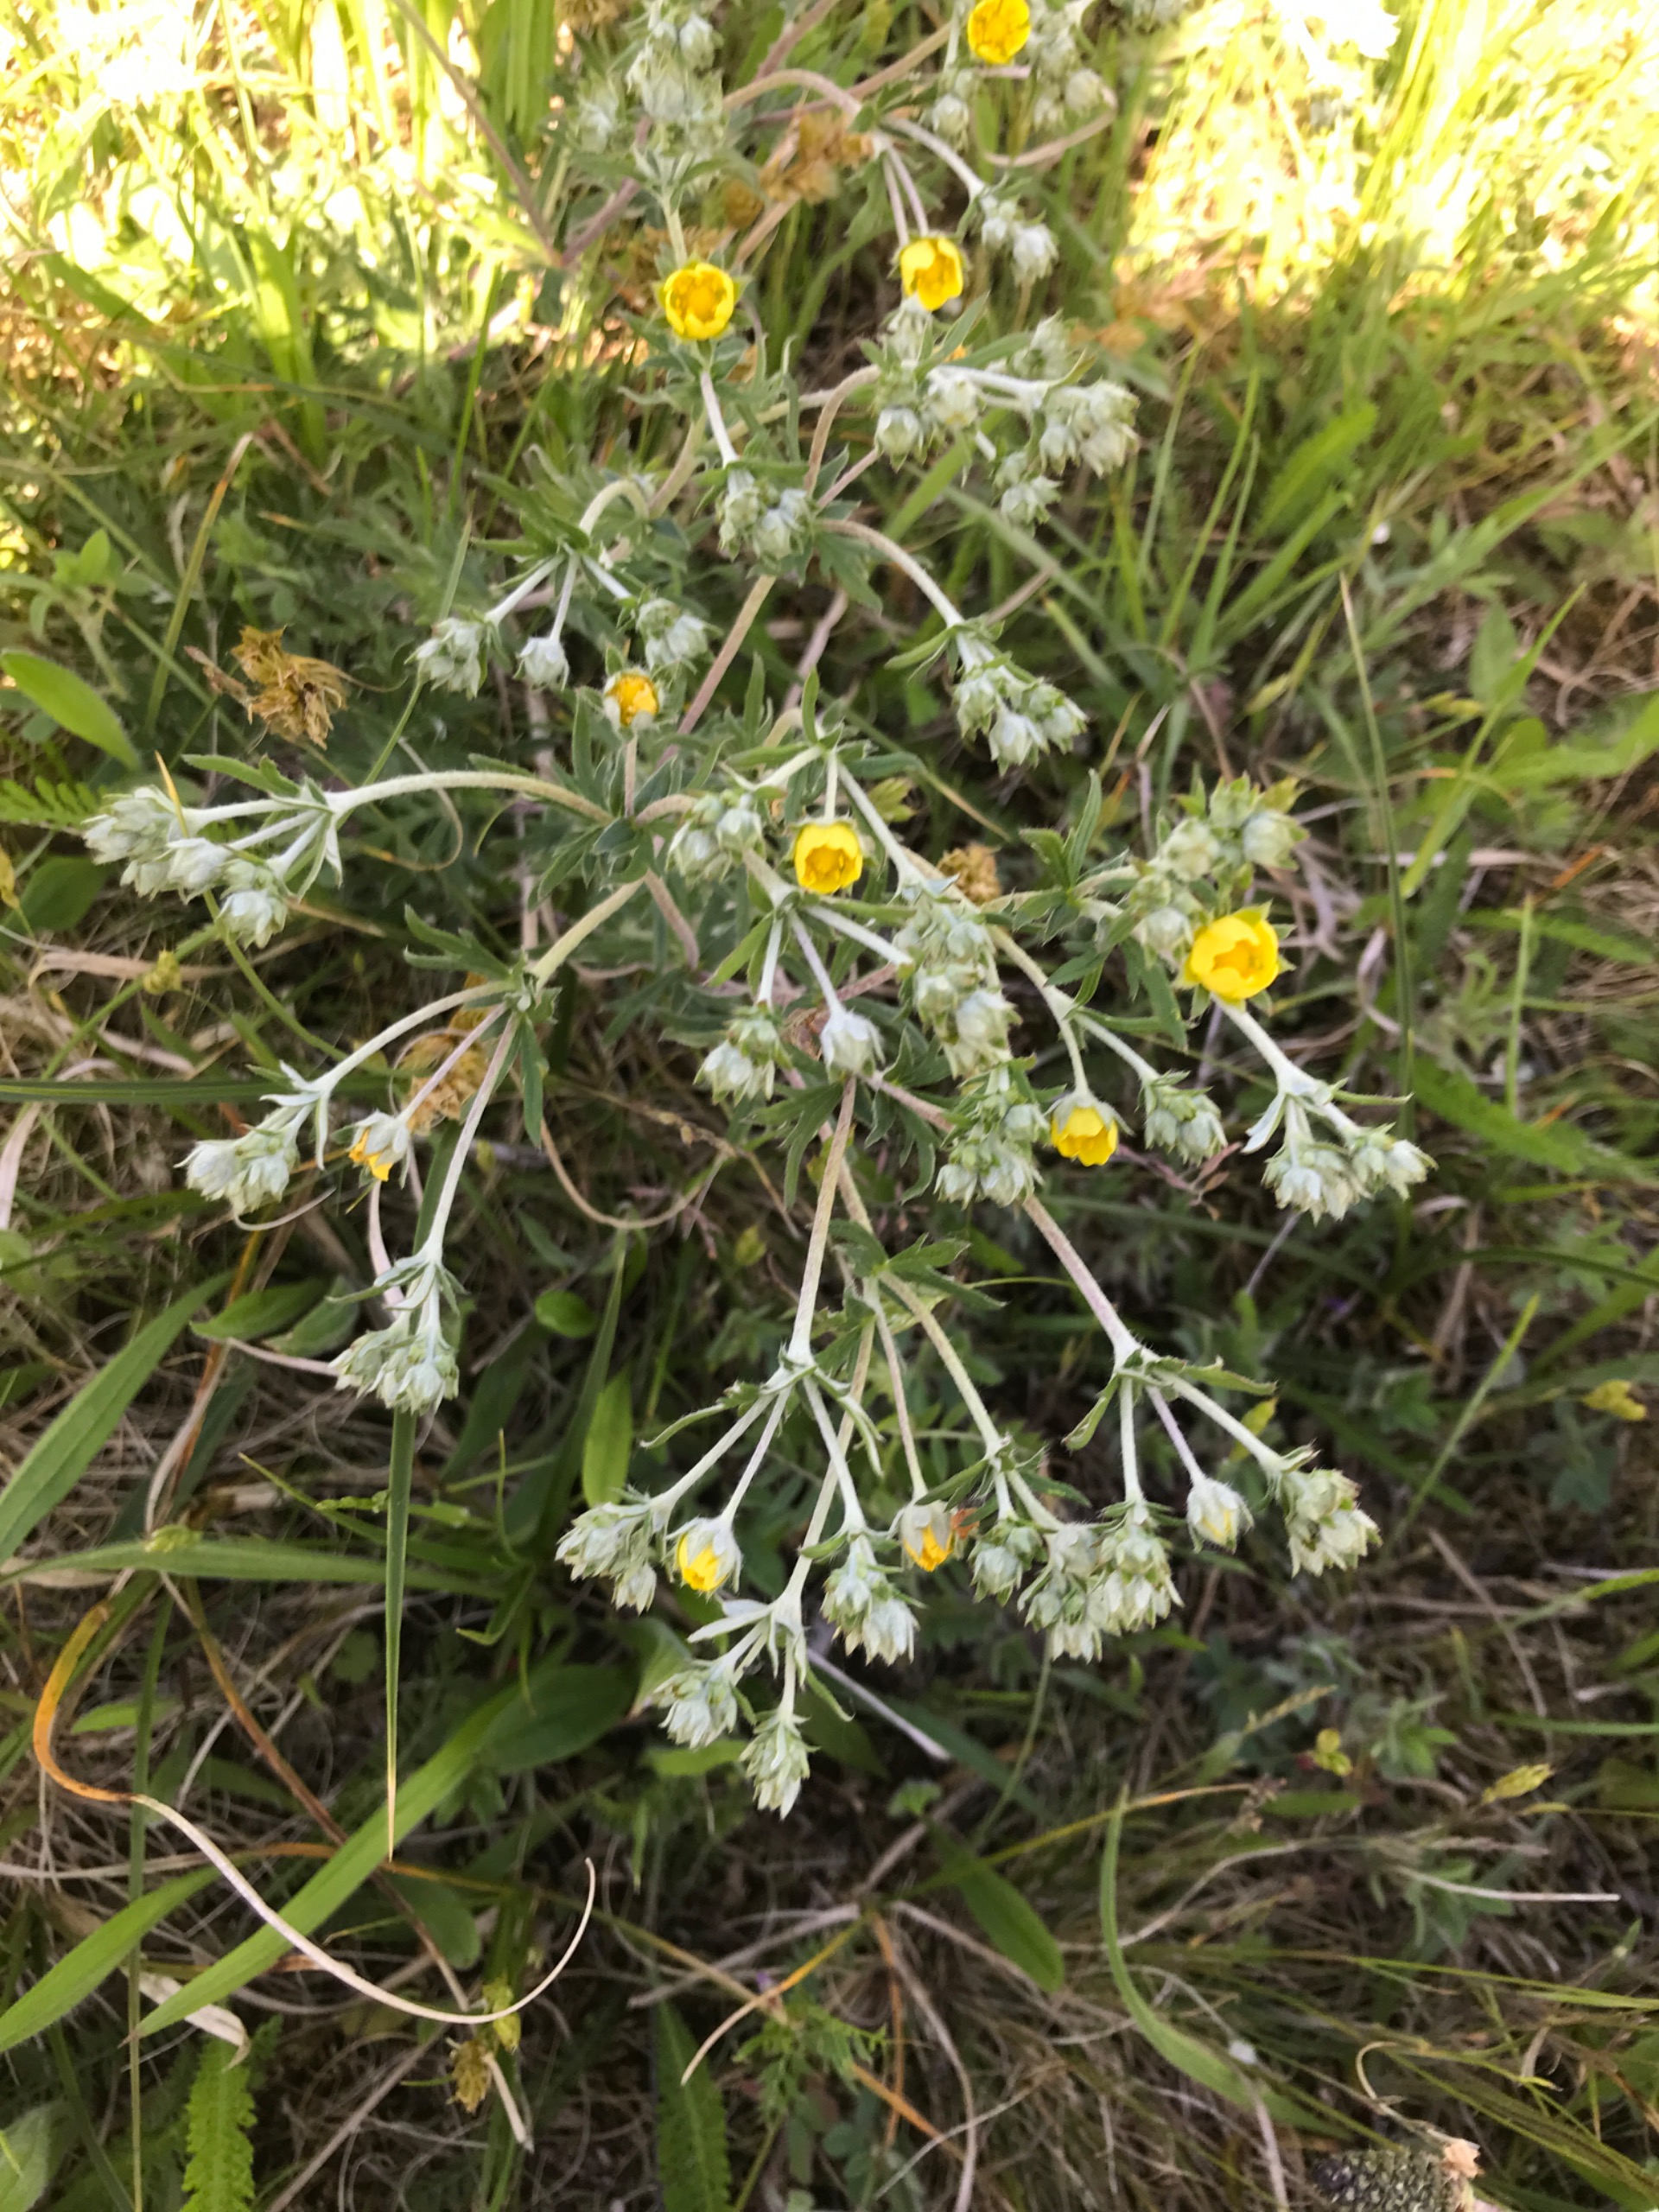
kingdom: Plantae
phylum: Tracheophyta
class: Magnoliopsida
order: Rosales
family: Rosaceae
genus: Potentilla
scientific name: Potentilla argentea
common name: Sølv-potentil
